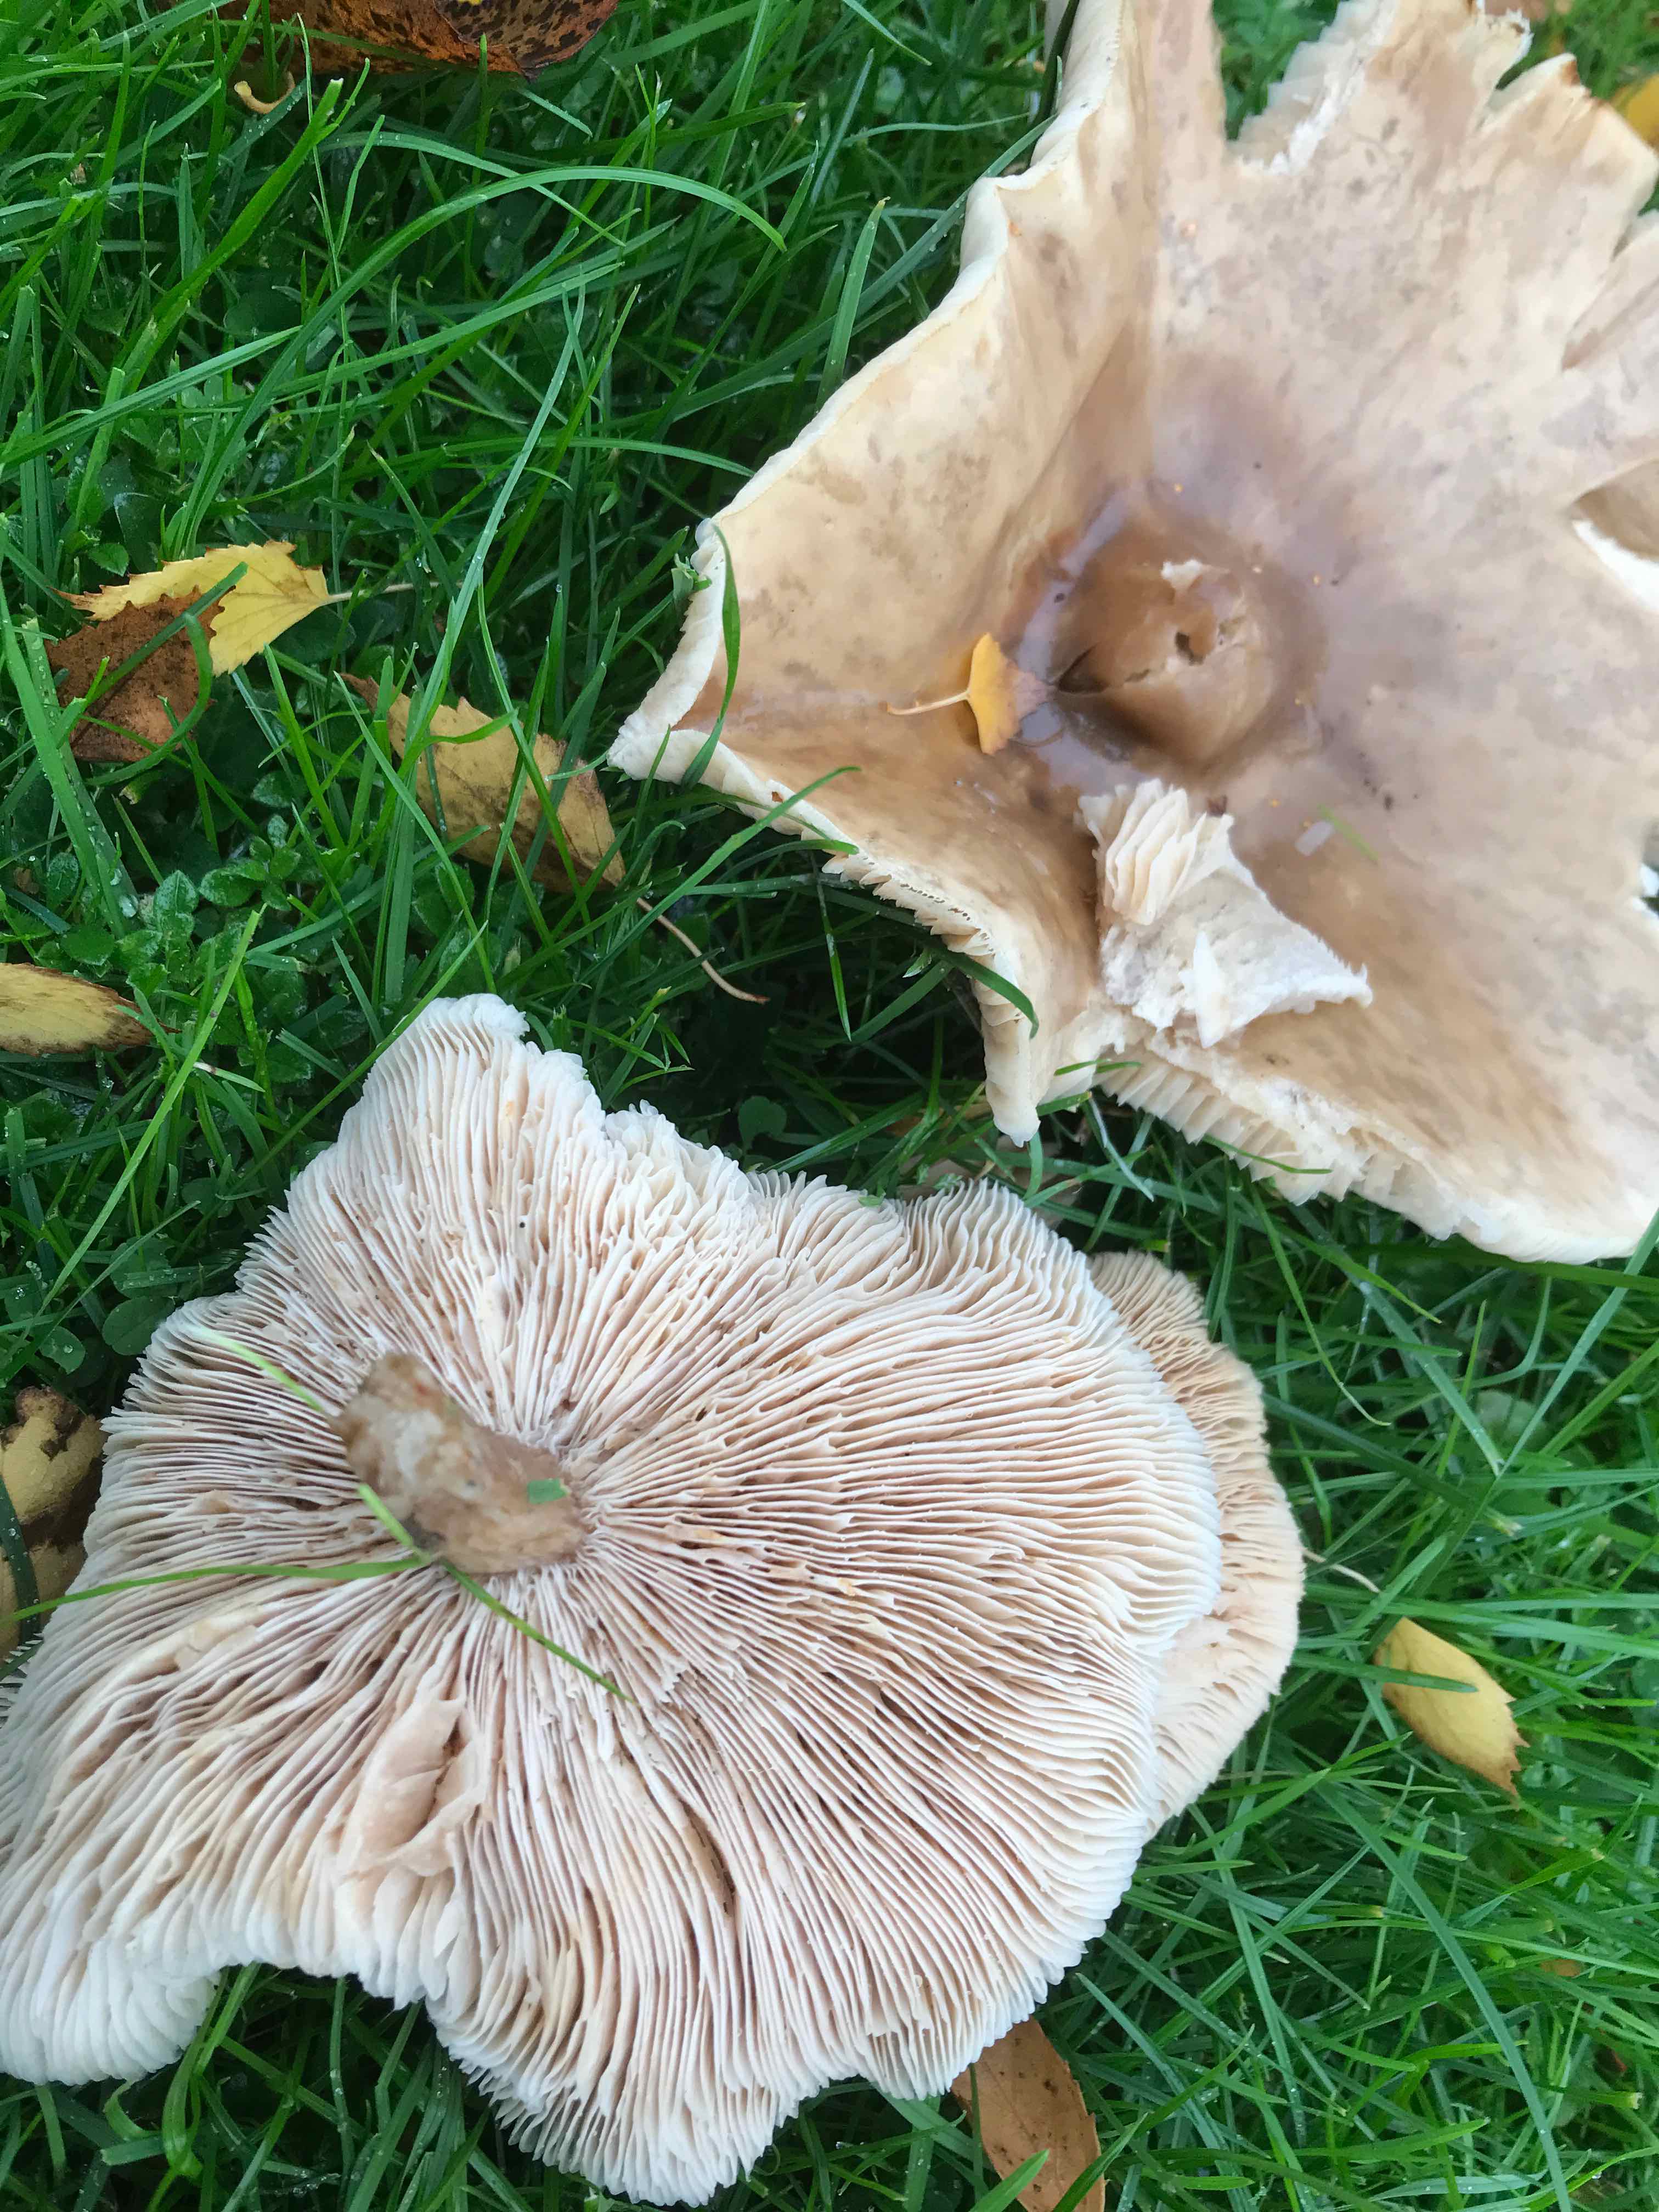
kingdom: Fungi
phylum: Basidiomycota
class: Agaricomycetes
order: Agaricales
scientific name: Agaricales
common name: champignonordenen
